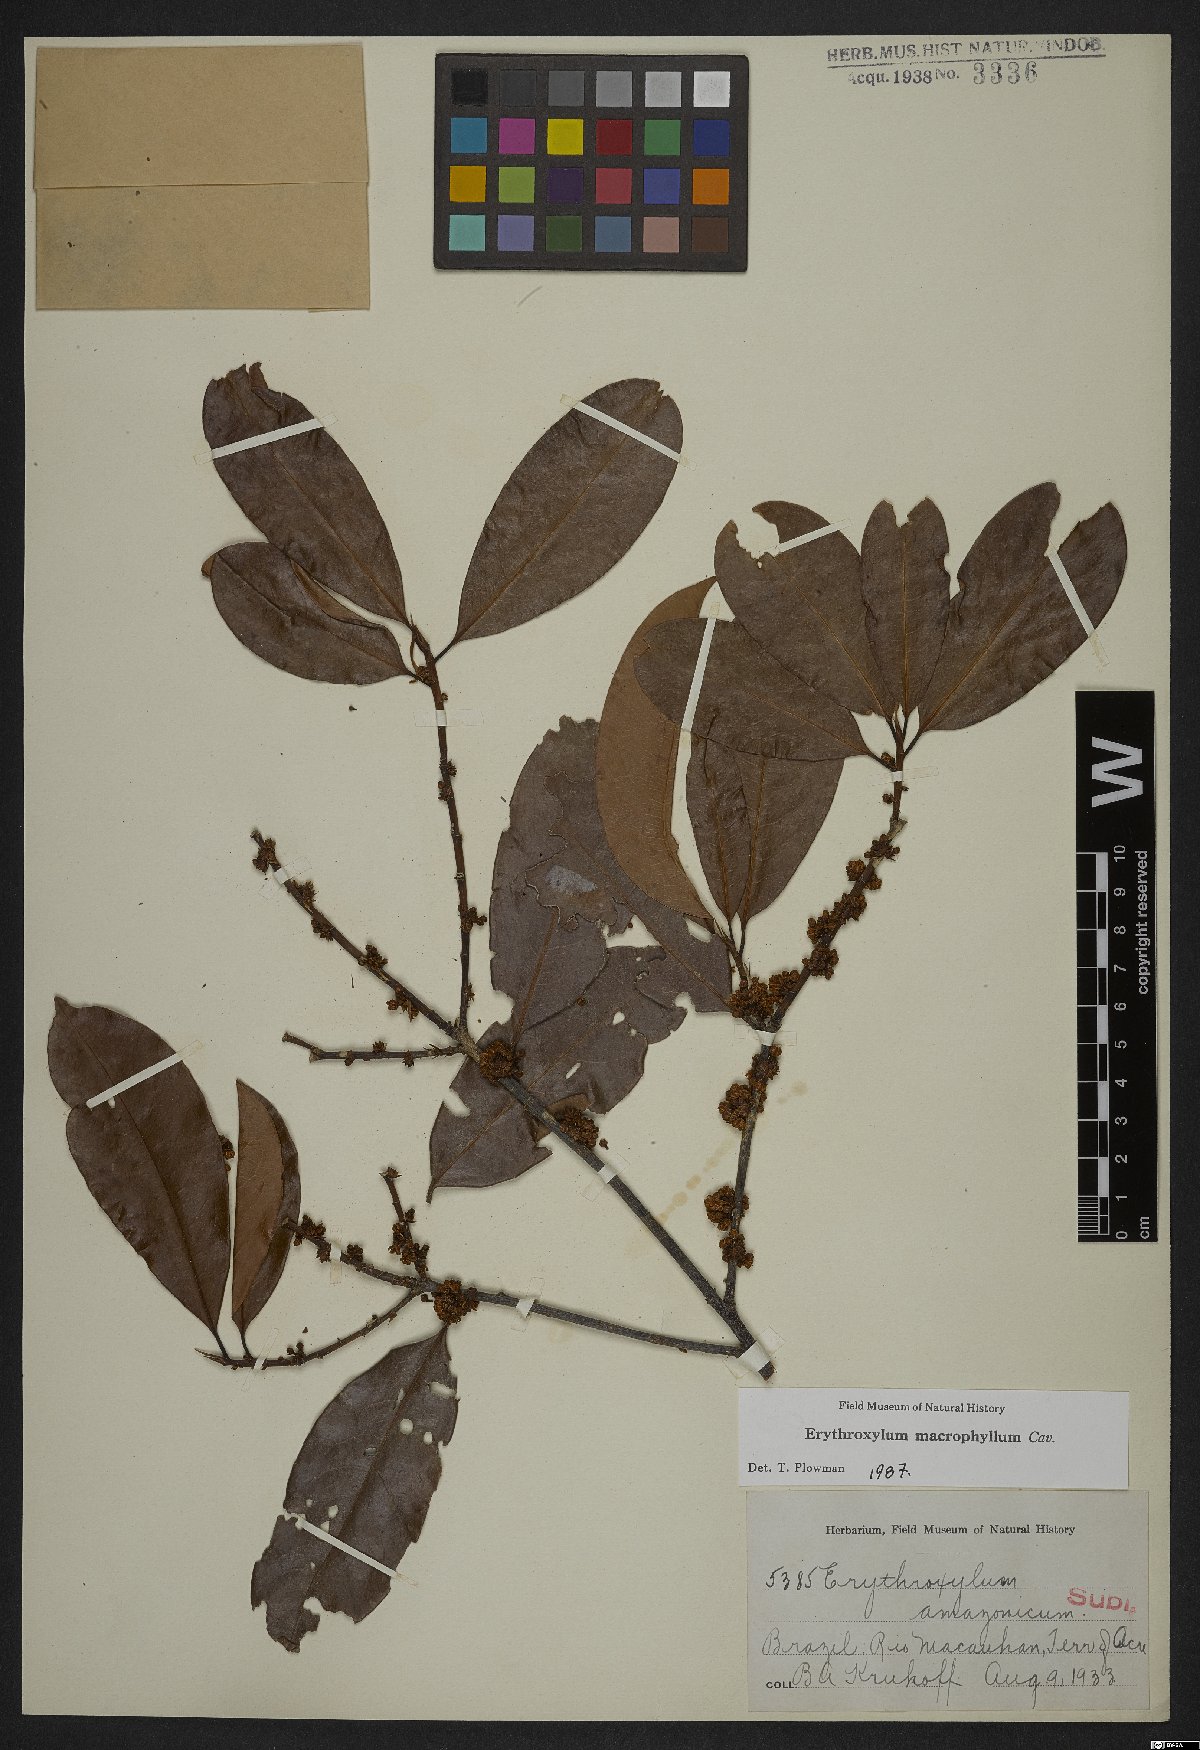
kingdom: Plantae
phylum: Tracheophyta
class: Magnoliopsida
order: Malpighiales
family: Erythroxylaceae
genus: Erythroxylum
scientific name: Erythroxylum macrophyllum
